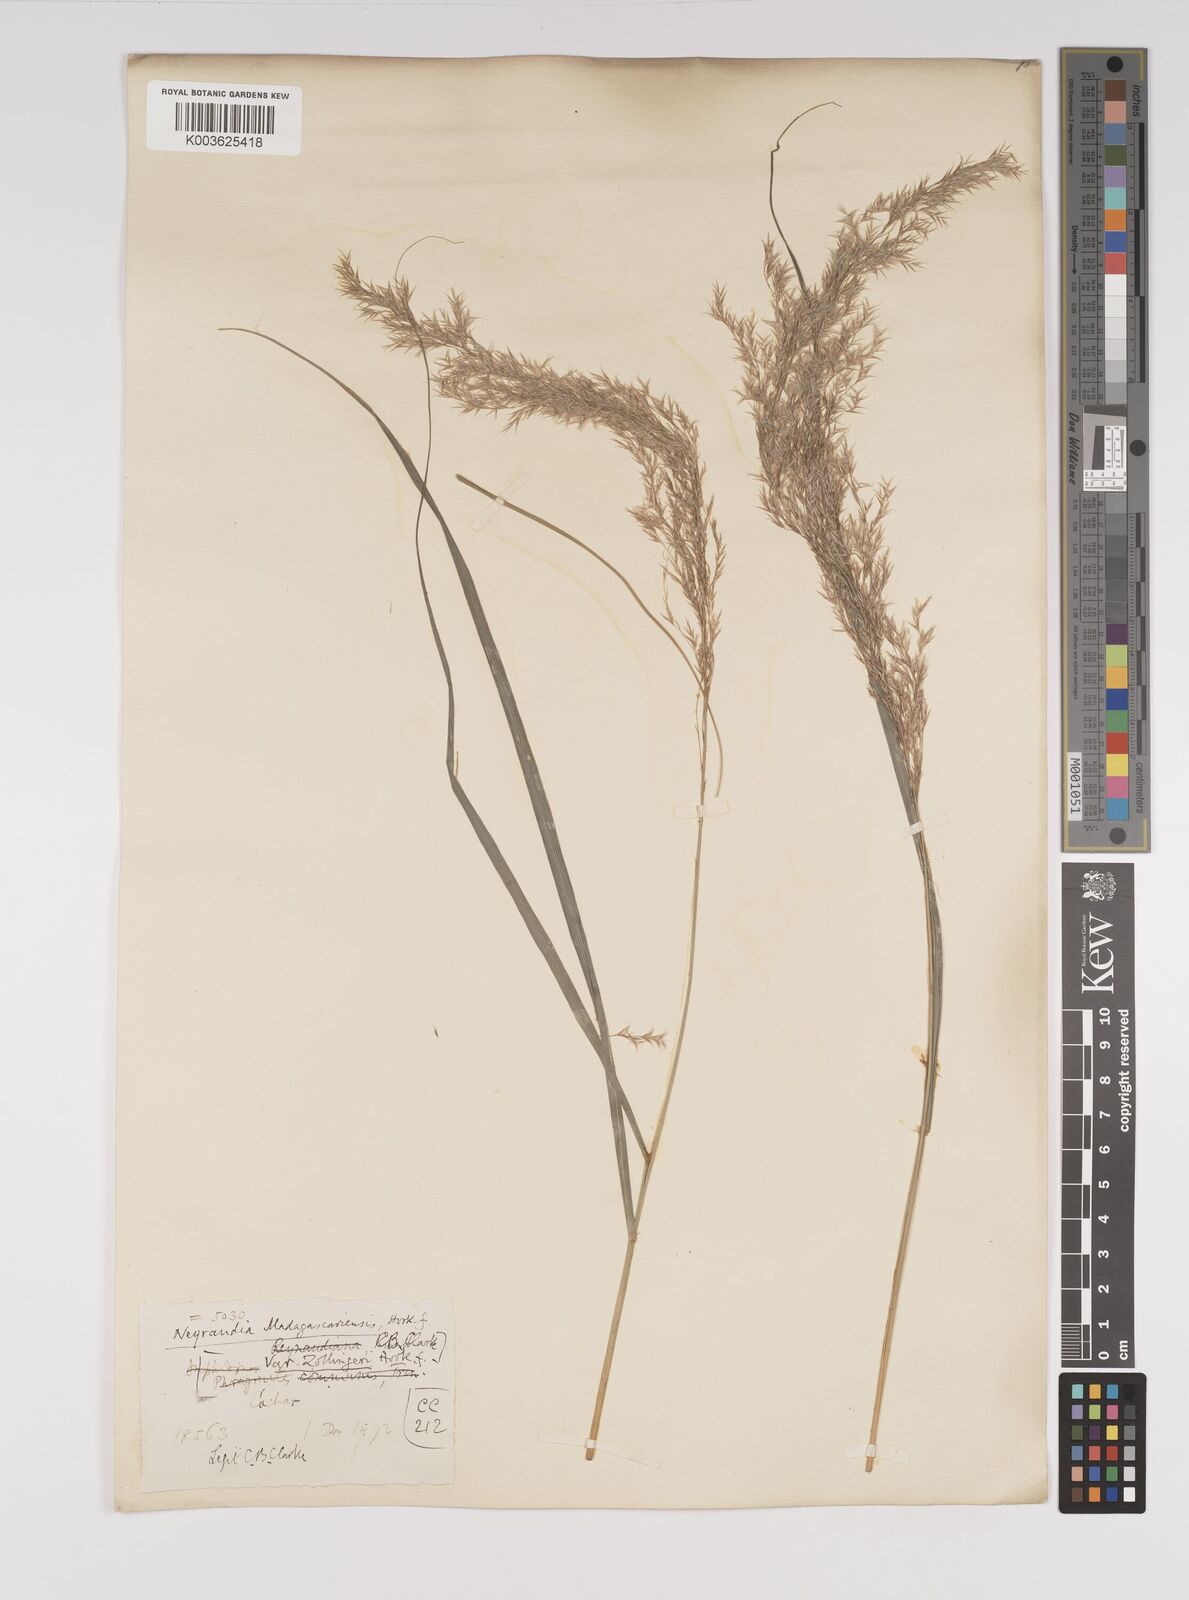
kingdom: Plantae
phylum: Tracheophyta
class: Liliopsida
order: Poales
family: Poaceae
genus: Neyraudia
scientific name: Neyraudia reynaudiana
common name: Silkreed
